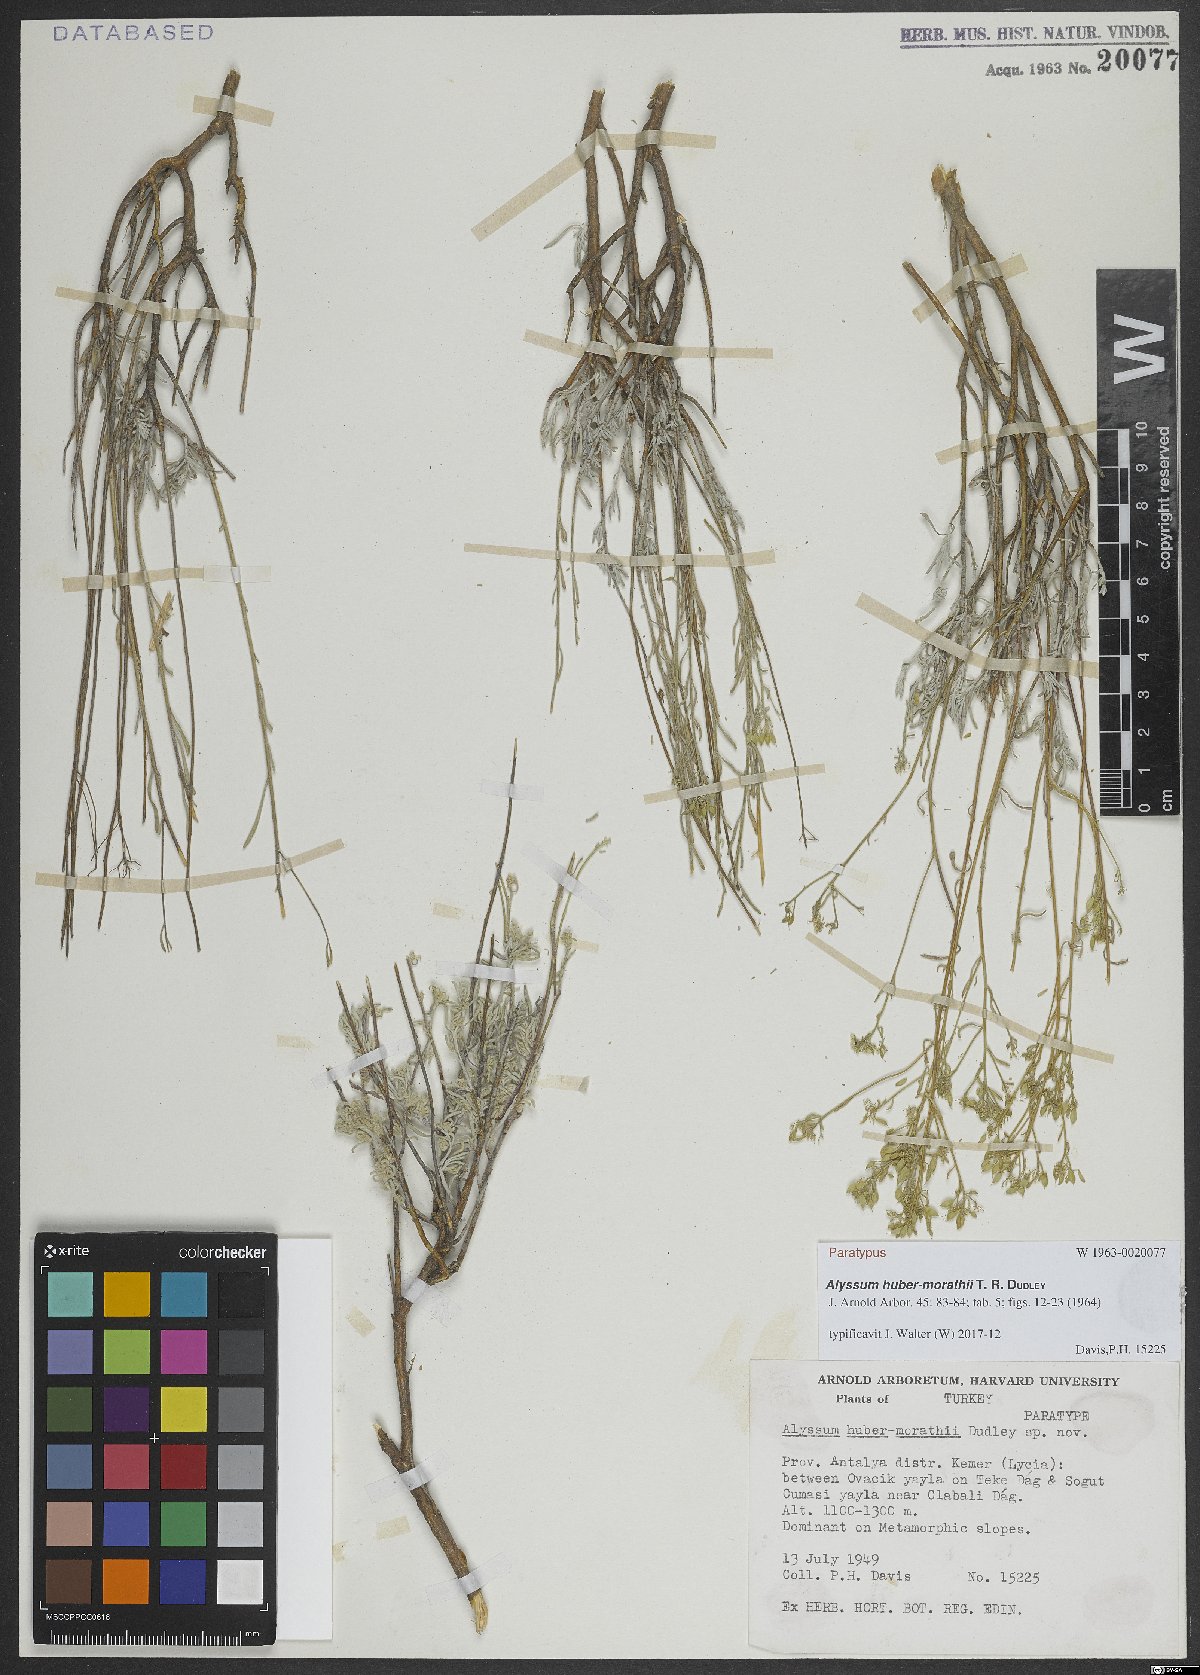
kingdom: Plantae
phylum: Tracheophyta
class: Magnoliopsida
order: Brassicales
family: Brassicaceae
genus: Odontarrhena
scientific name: Odontarrhena huber-morathii
